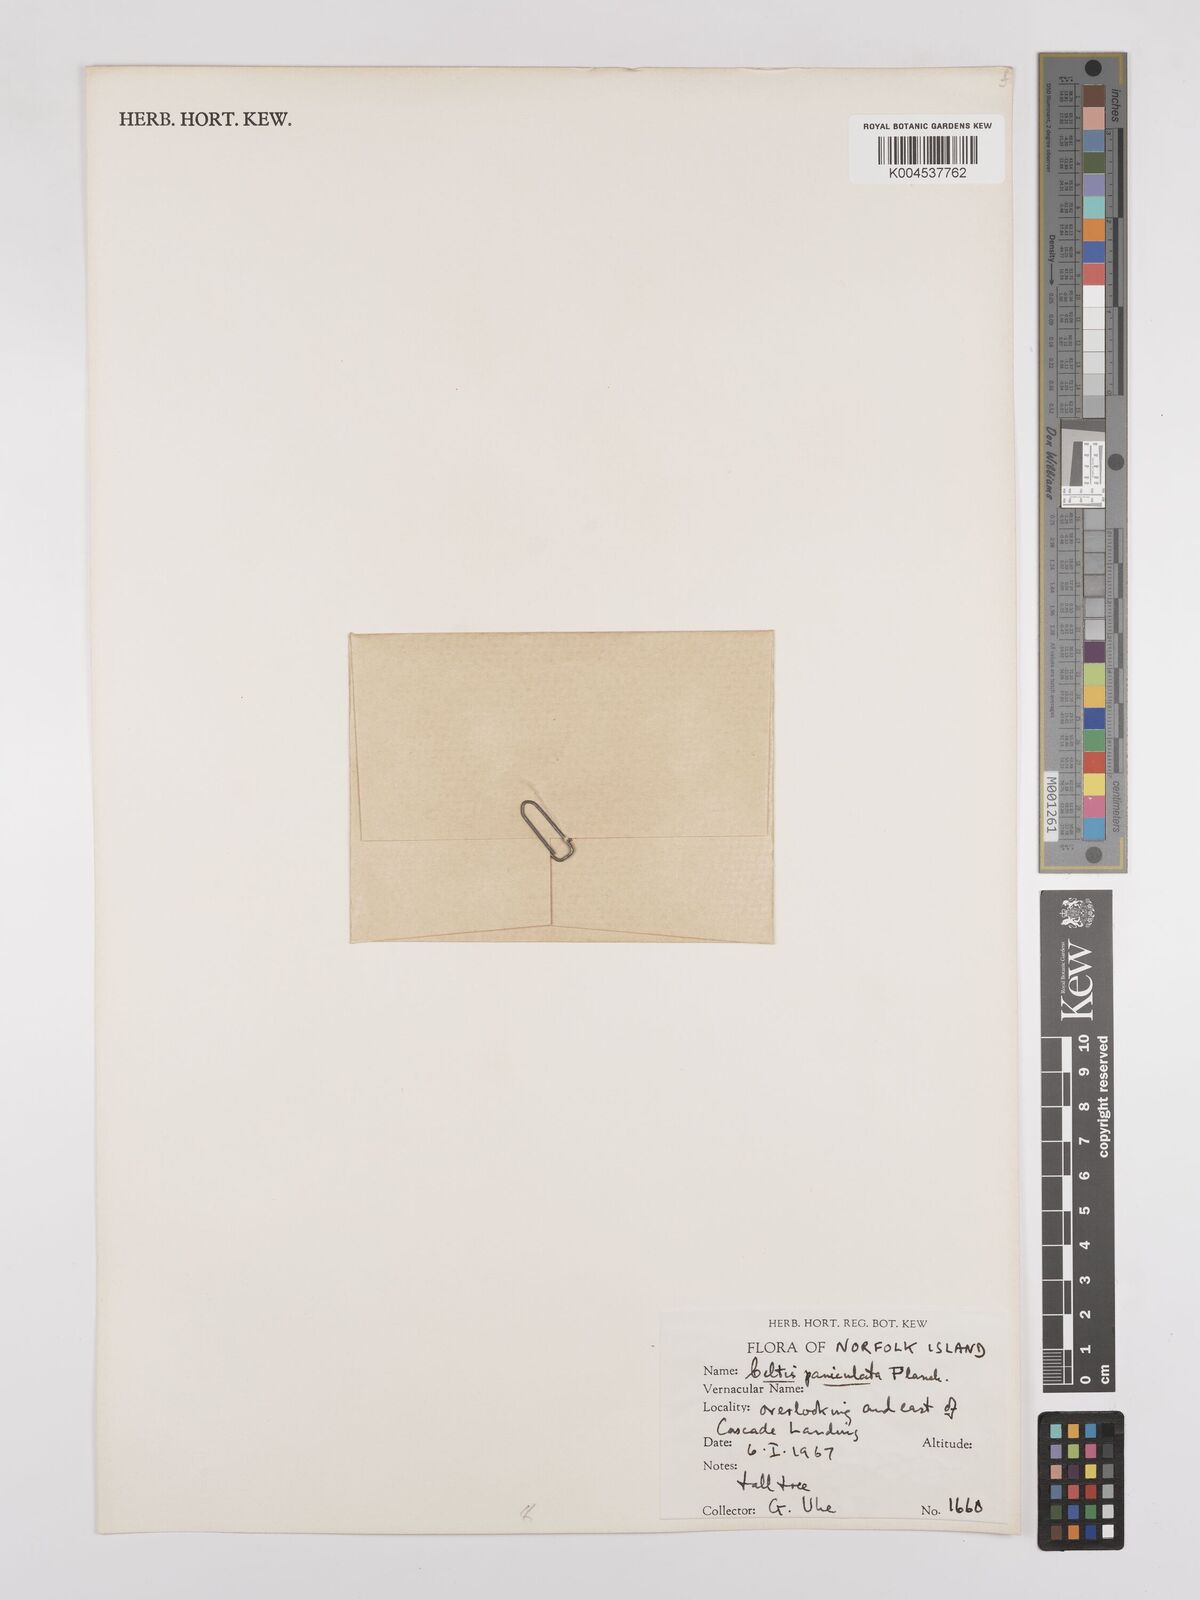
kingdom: Plantae
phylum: Tracheophyta
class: Magnoliopsida
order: Rosales
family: Cannabaceae
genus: Celtis
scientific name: Celtis paniculata
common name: Silky celtis
